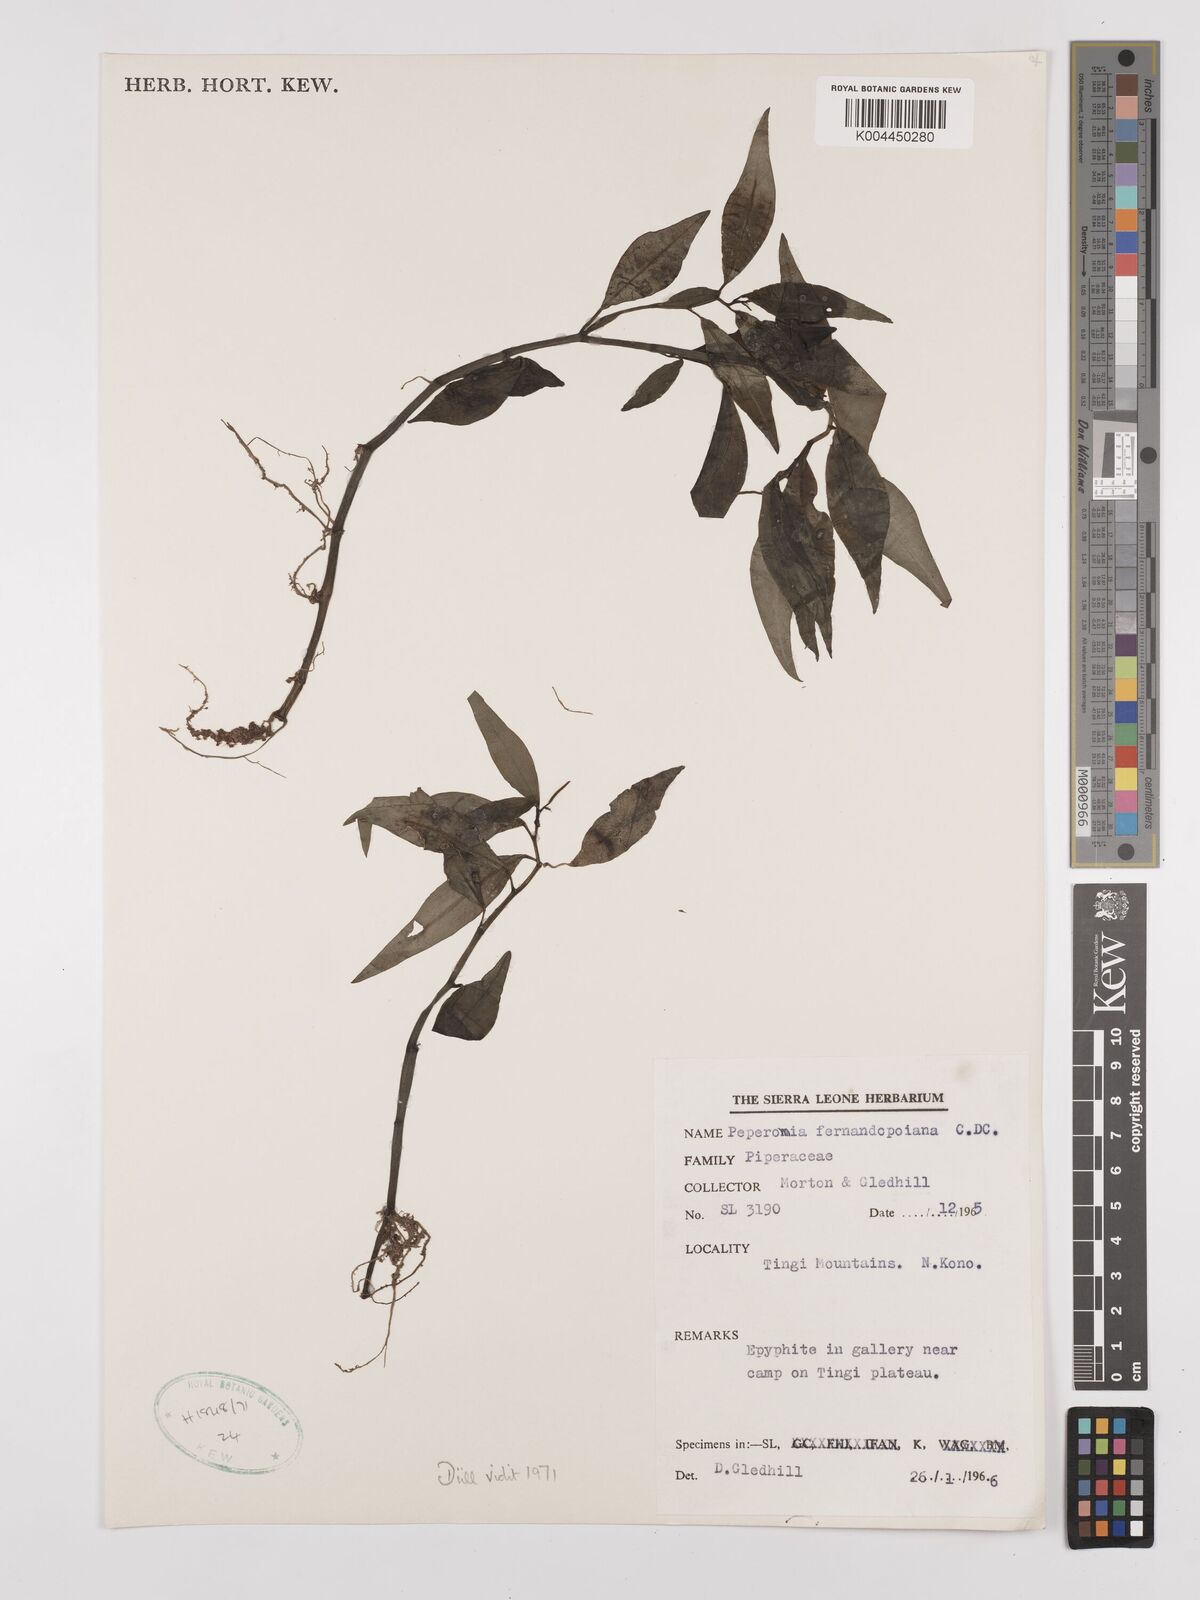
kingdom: Plantae
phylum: Tracheophyta
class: Magnoliopsida
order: Piperales
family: Piperaceae
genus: Peperomia
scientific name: Peperomia fernandeziana
